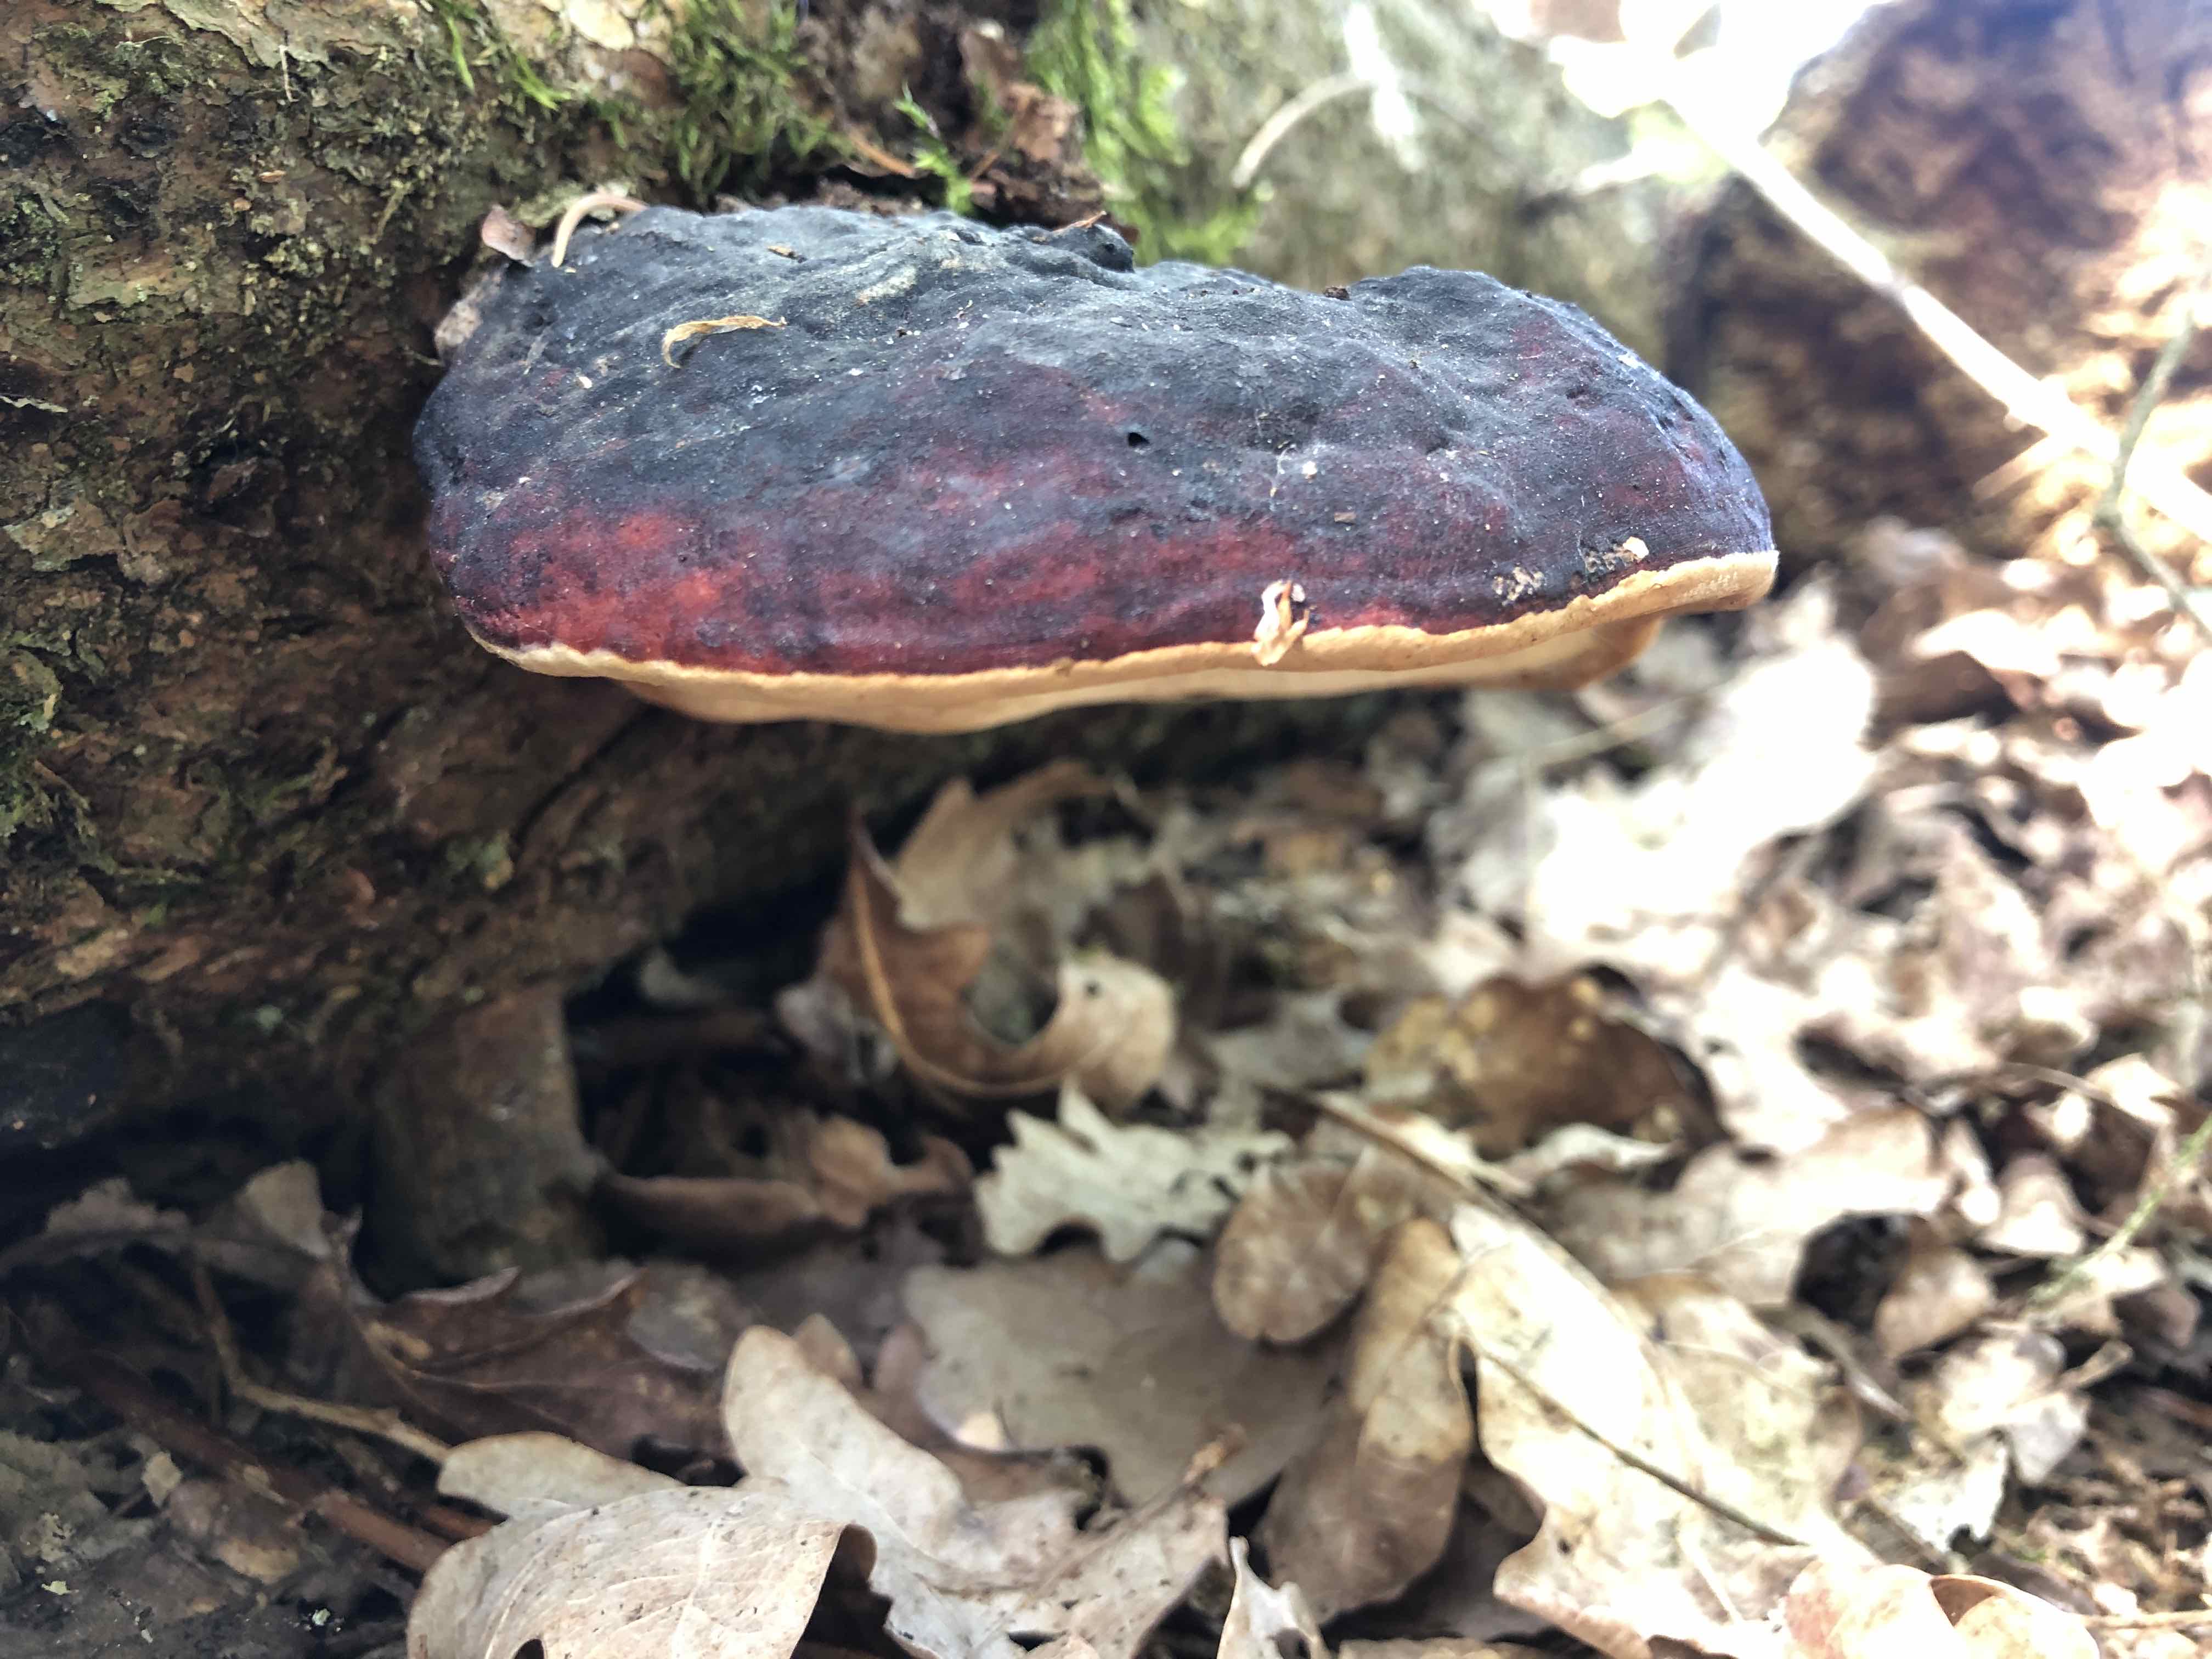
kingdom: Fungi
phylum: Basidiomycota
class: Agaricomycetes
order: Polyporales
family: Fomitopsidaceae
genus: Fomitopsis
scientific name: Fomitopsis pinicola
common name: randbæltet hovporesvamp
